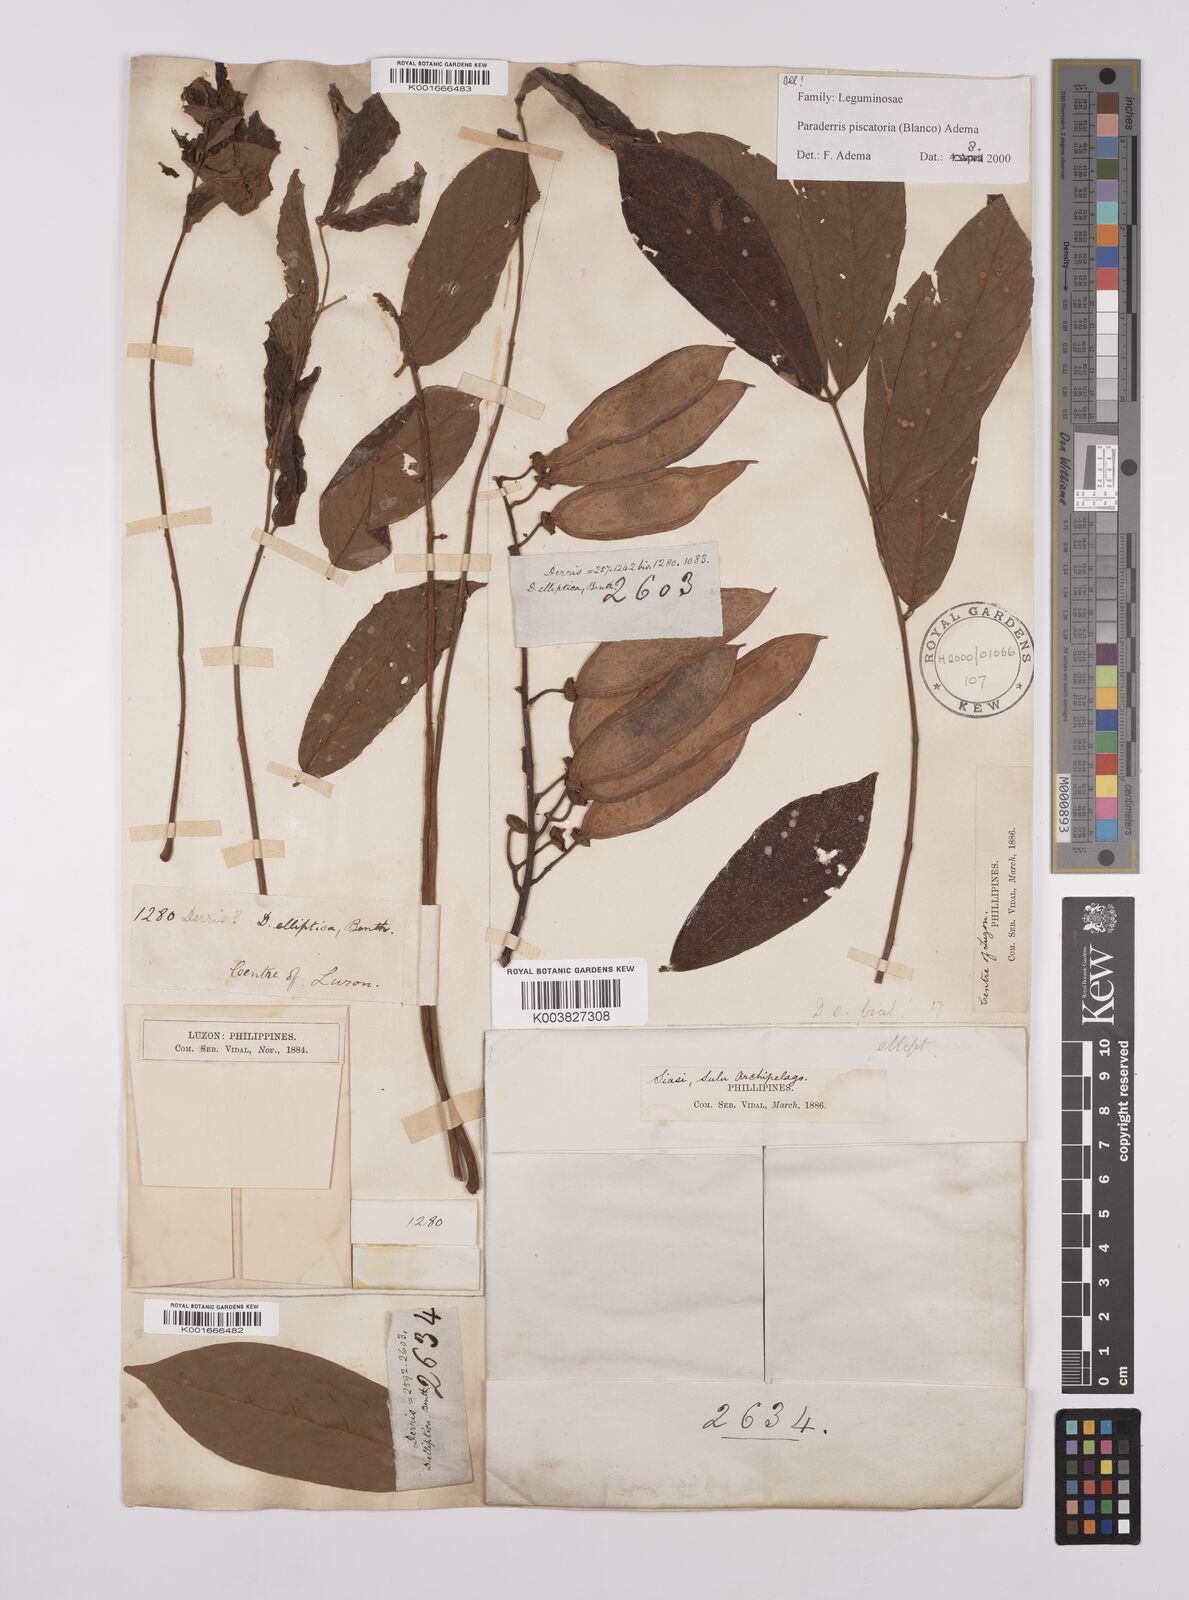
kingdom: Plantae
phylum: Tracheophyta
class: Magnoliopsida
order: Fabales
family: Fabaceae
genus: Derris
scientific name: Derris piscatoria
